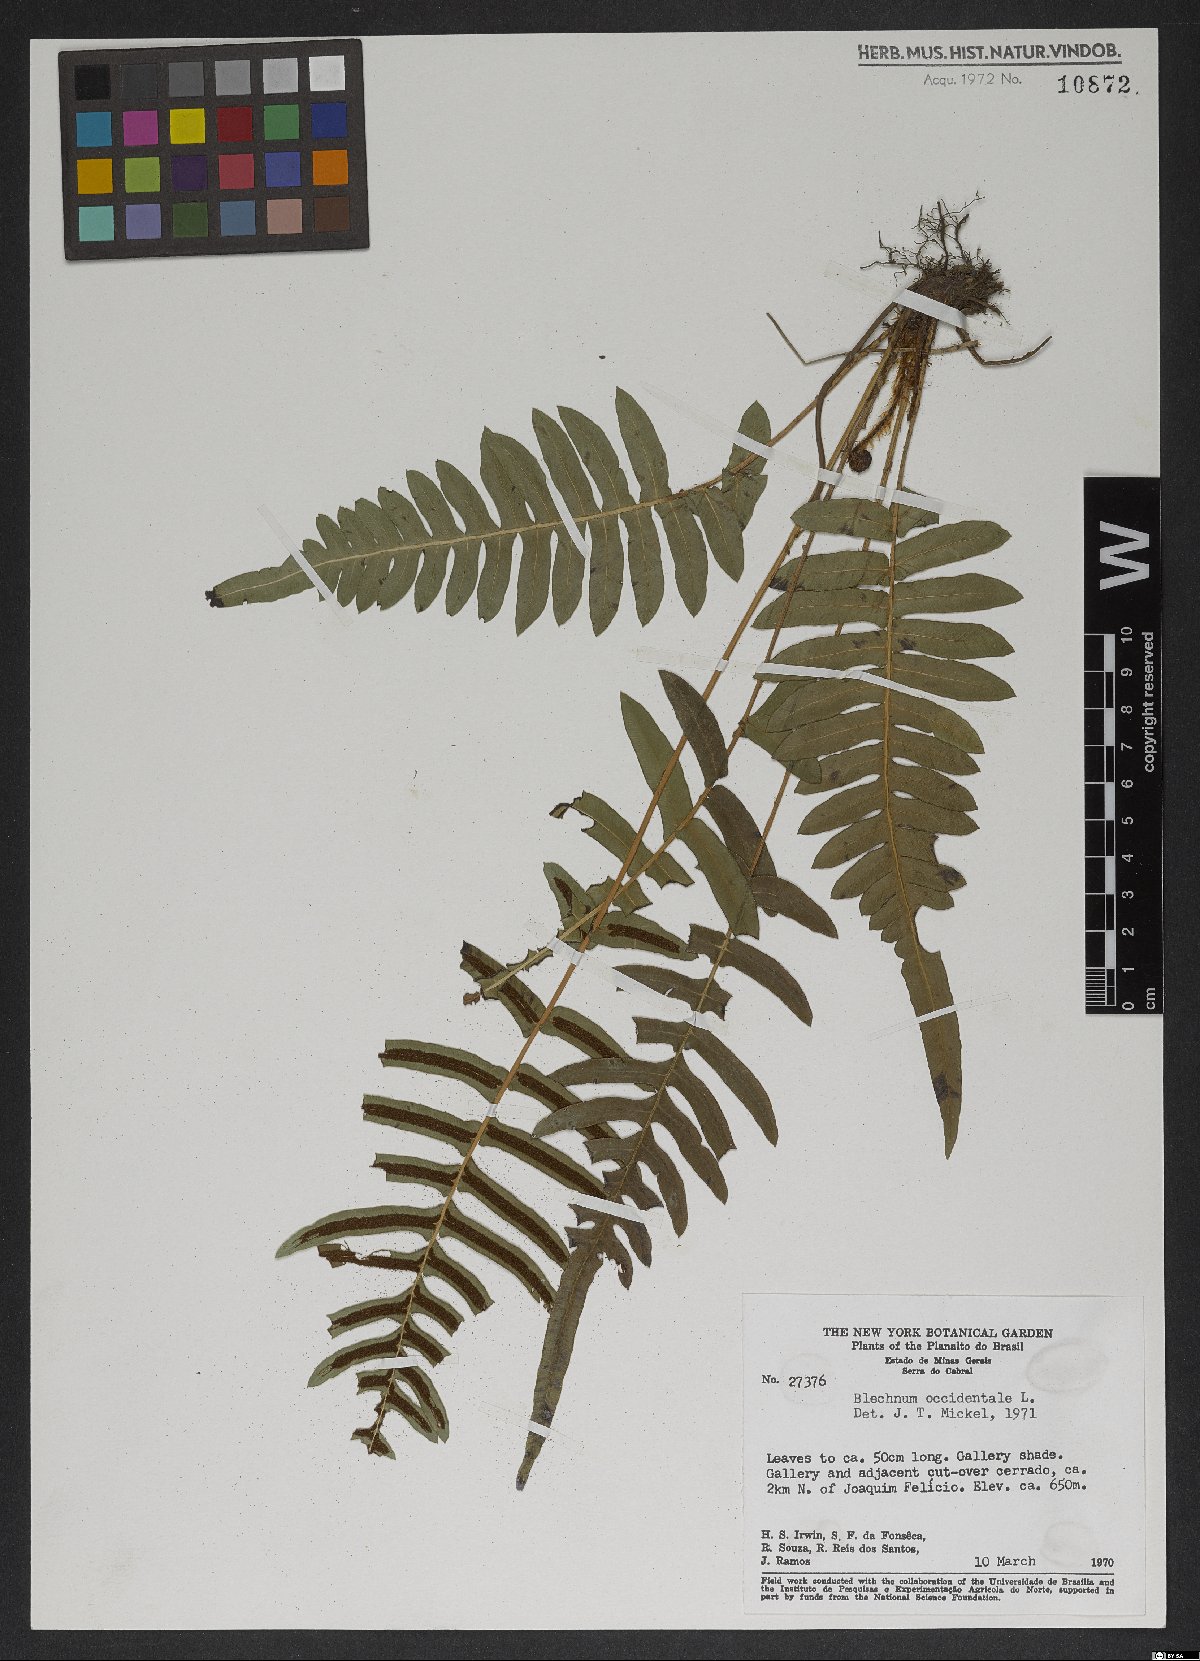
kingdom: Plantae
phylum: Tracheophyta
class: Polypodiopsida
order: Polypodiales
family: Blechnaceae
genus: Blechnum
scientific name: Blechnum occidentale
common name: Hammock fern
